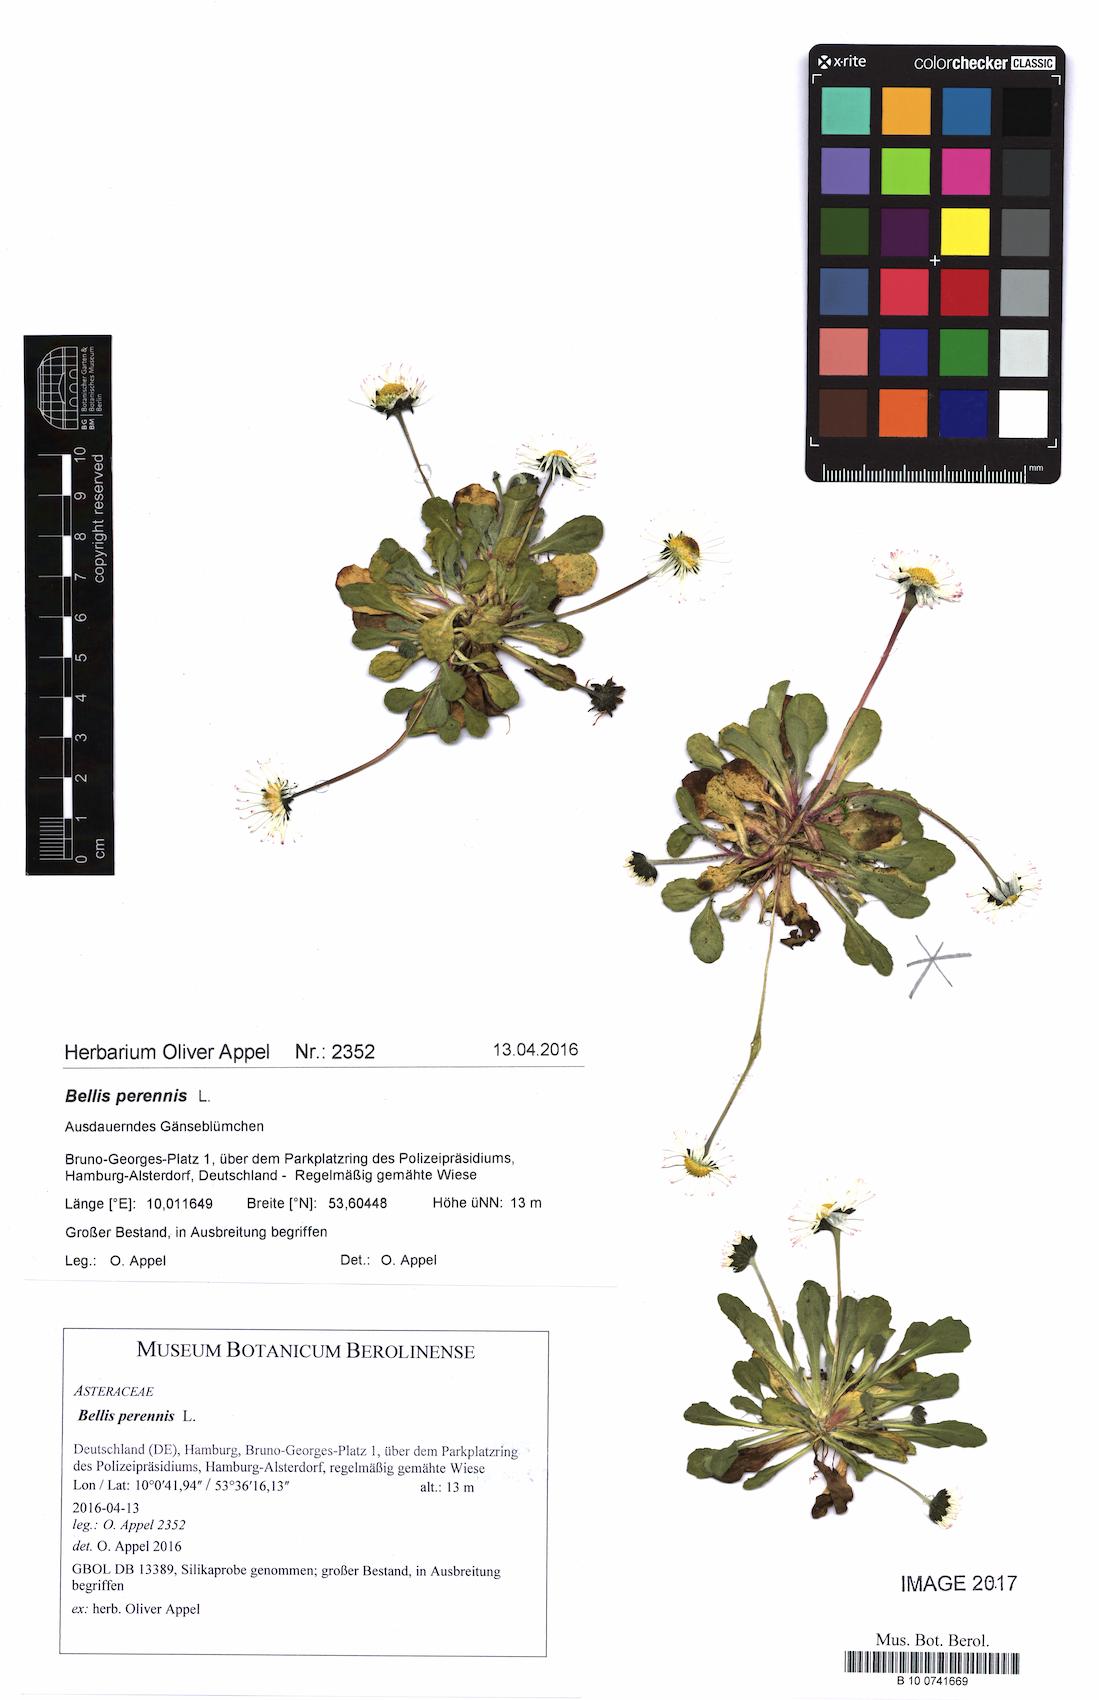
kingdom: Plantae
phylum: Tracheophyta
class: Magnoliopsida
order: Asterales
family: Asteraceae
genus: Bellis
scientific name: Bellis perennis
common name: Lawndaisy
